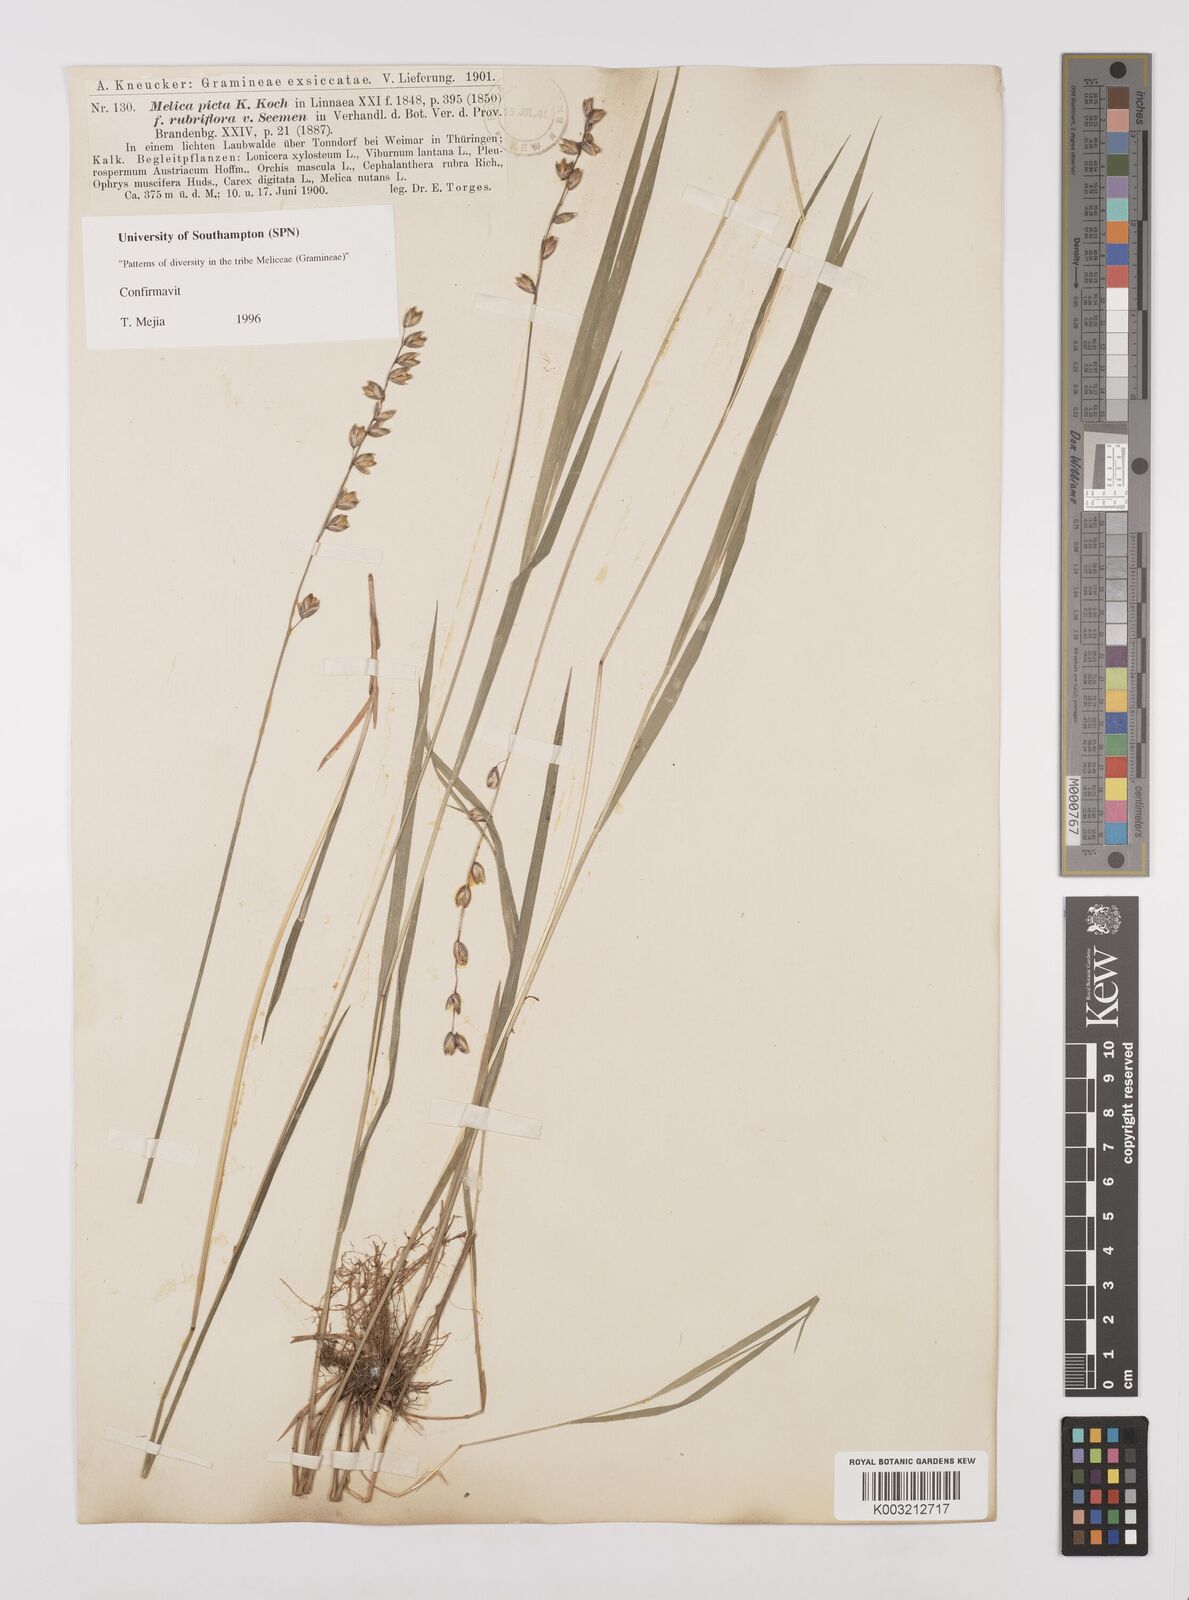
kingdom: Plantae
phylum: Tracheophyta
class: Liliopsida
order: Poales
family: Poaceae
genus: Melica
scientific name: Melica picta
